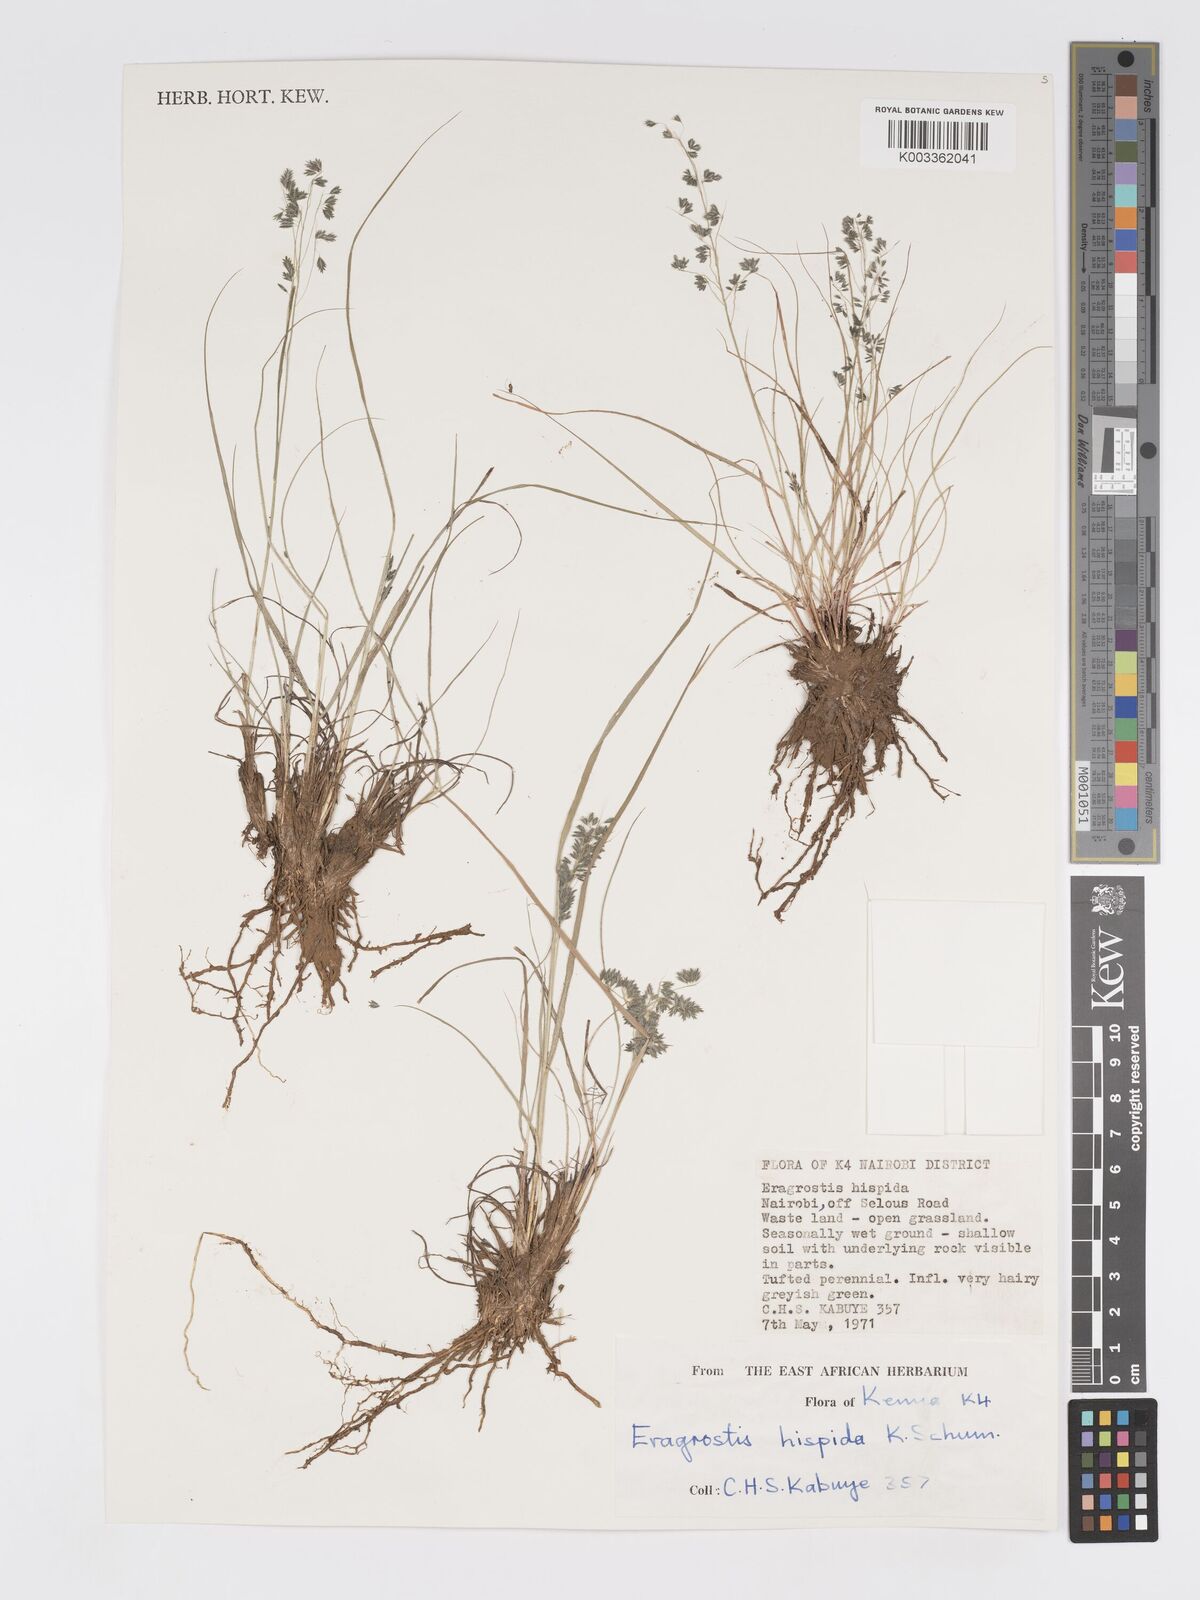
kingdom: Plantae
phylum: Tracheophyta
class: Liliopsida
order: Poales
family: Poaceae
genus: Eragrostis
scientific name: Eragrostis hispida
